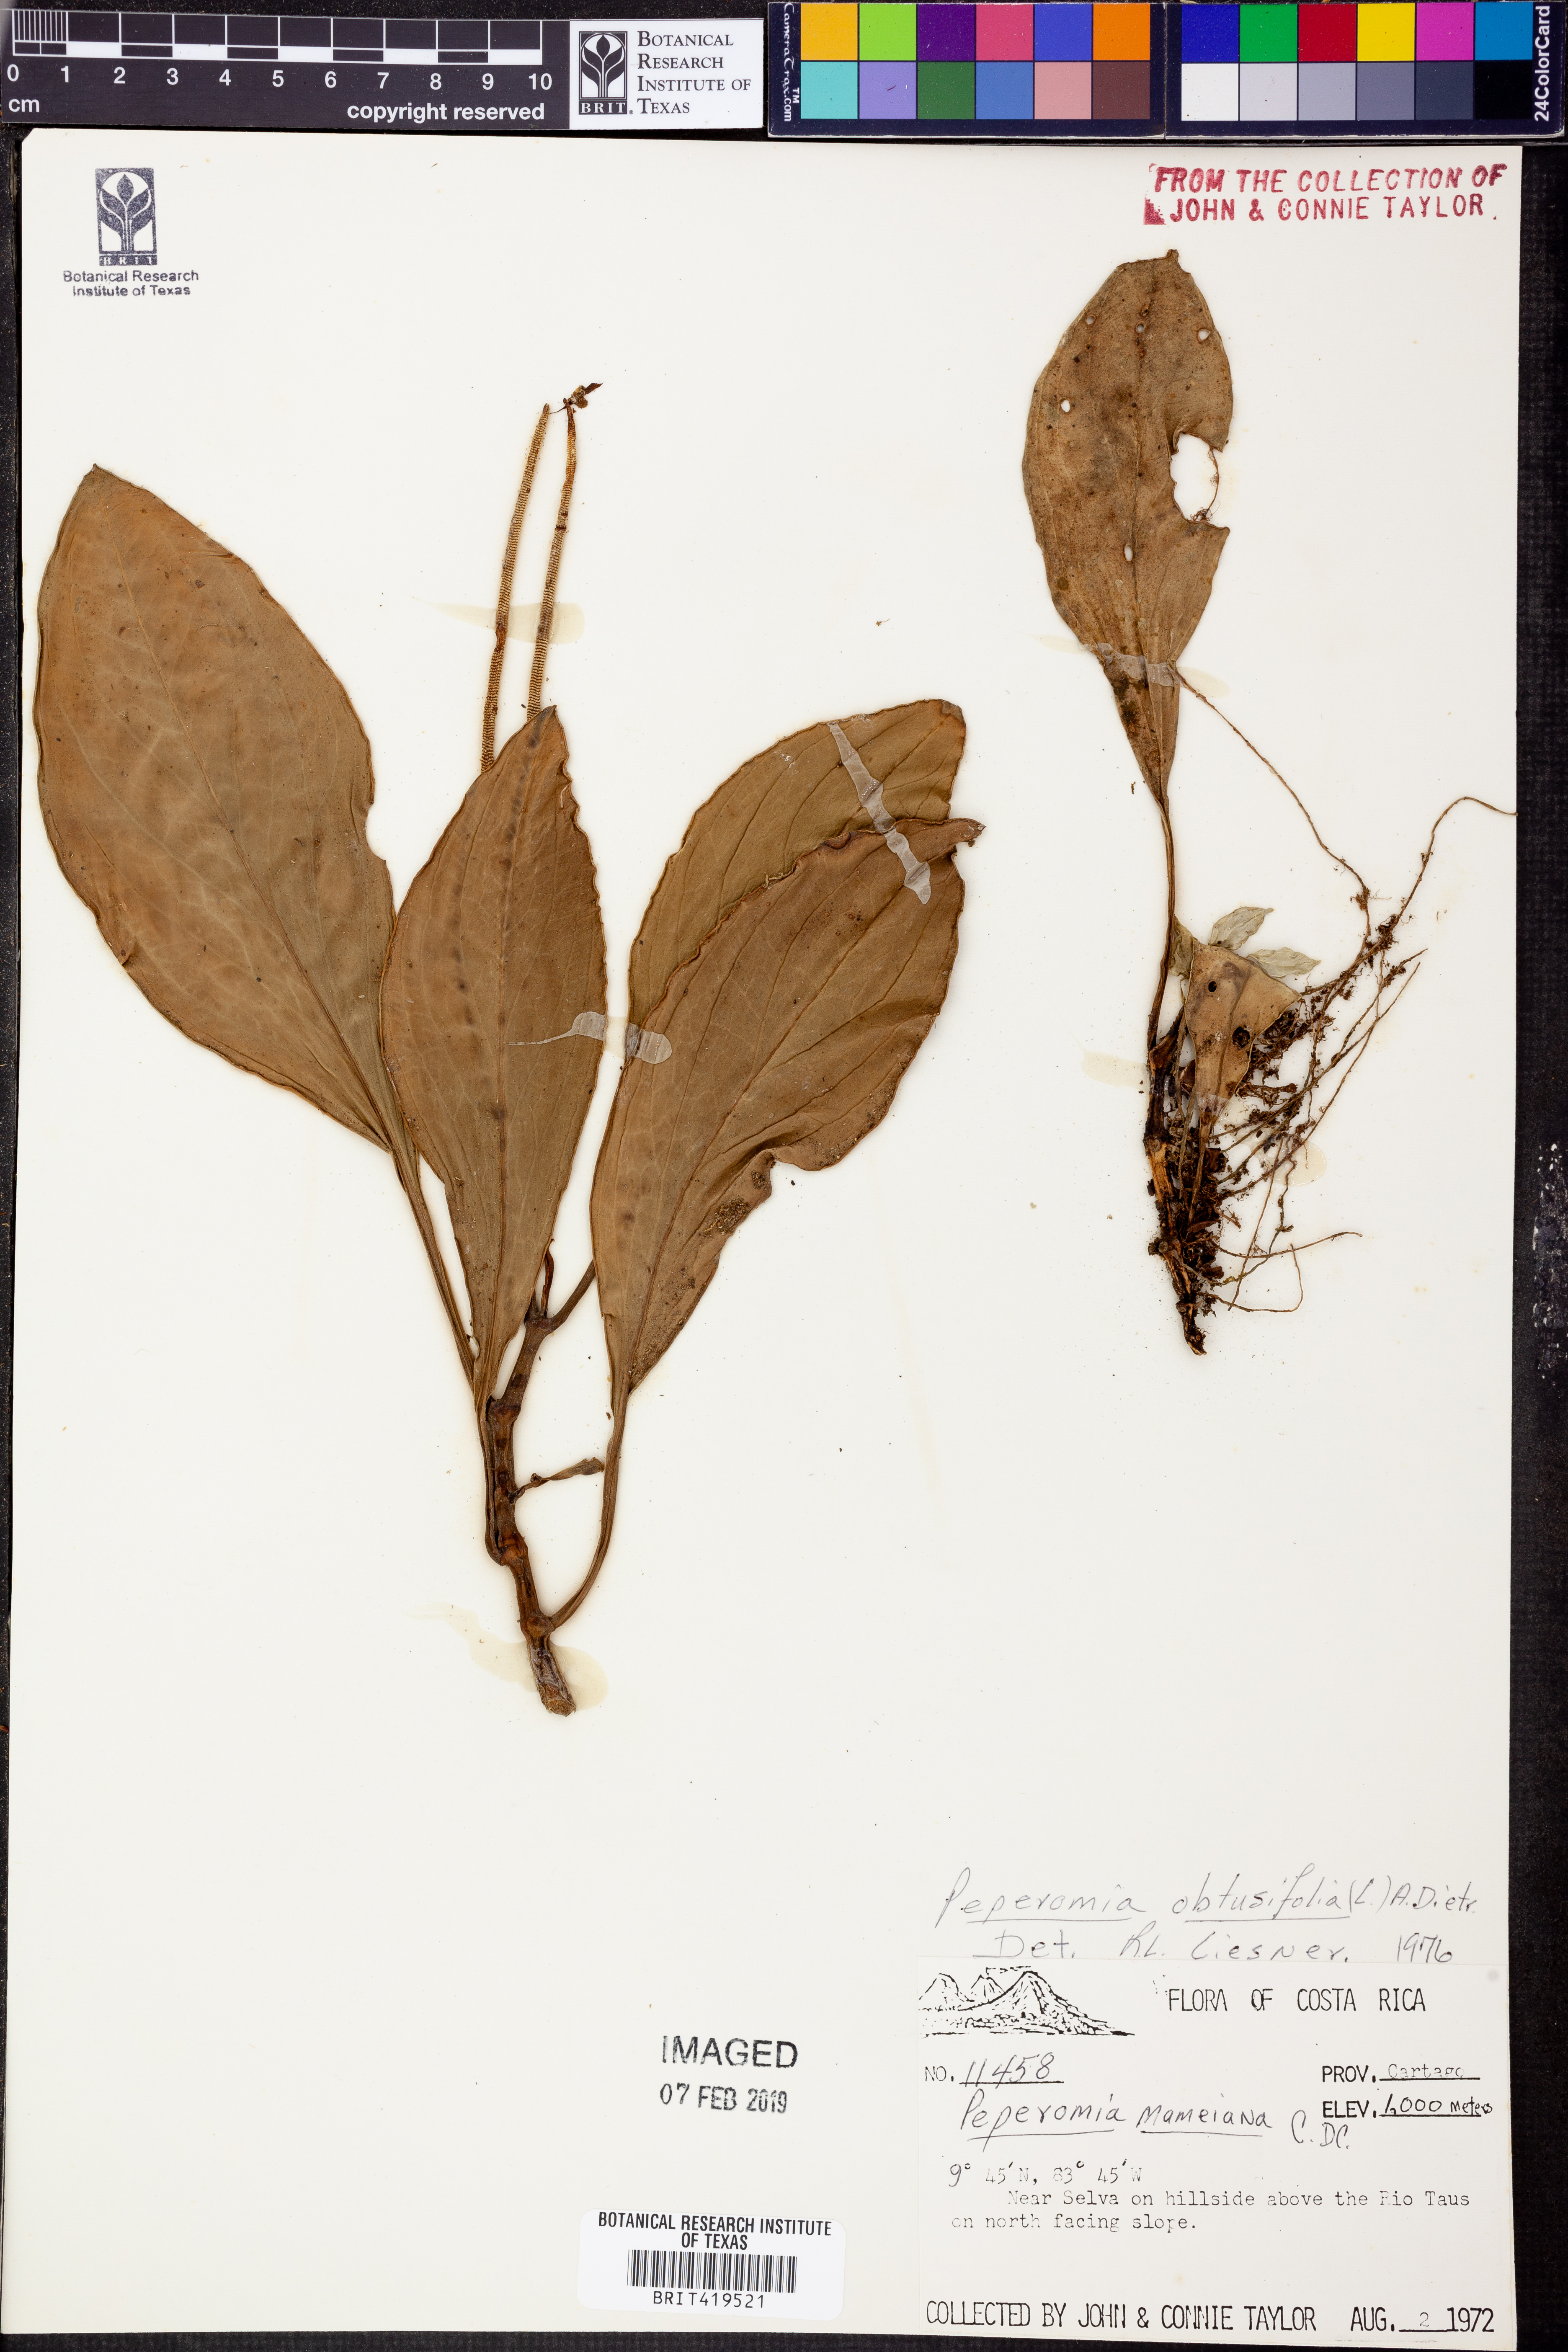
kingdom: Plantae
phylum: Tracheophyta
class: Magnoliopsida
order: Piperales
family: Piperaceae
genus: Peperomia
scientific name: Peperomia obtusifolia
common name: Baby rubberplant
